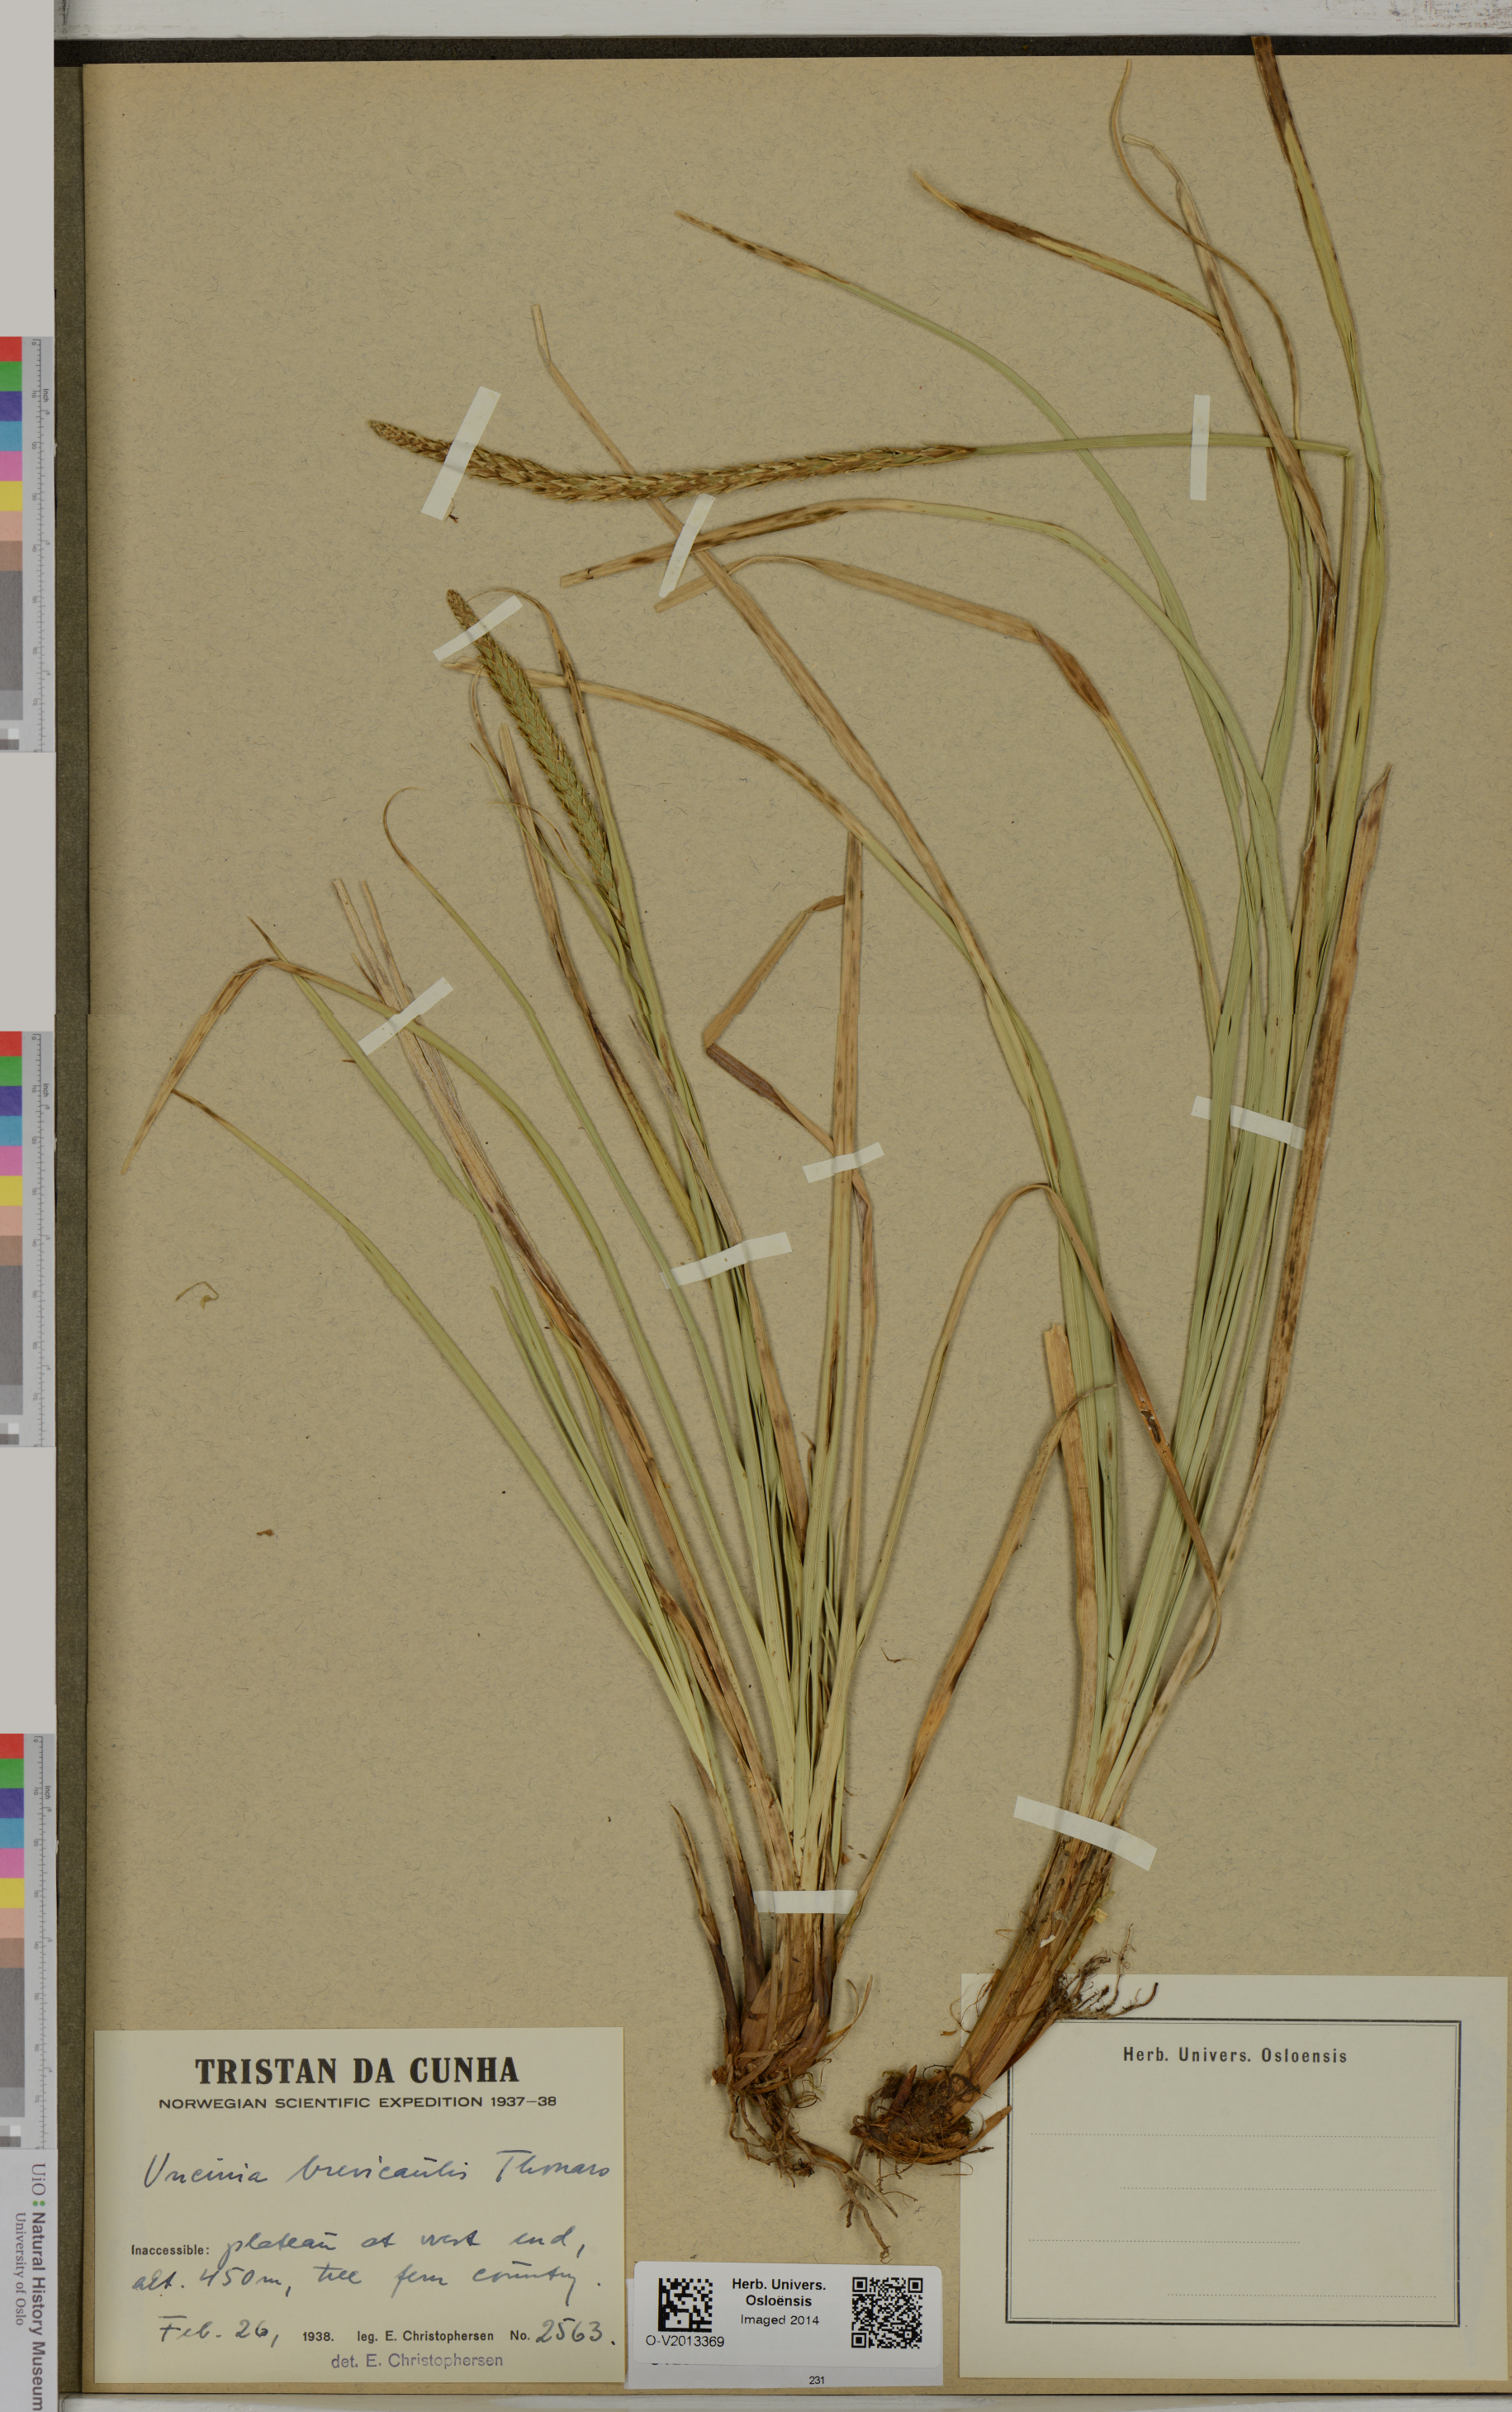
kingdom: Plantae
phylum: Tracheophyta
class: Liliopsida
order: Poales
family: Cyperaceae
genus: Carex
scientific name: Carex Uncinia brevicaulis
